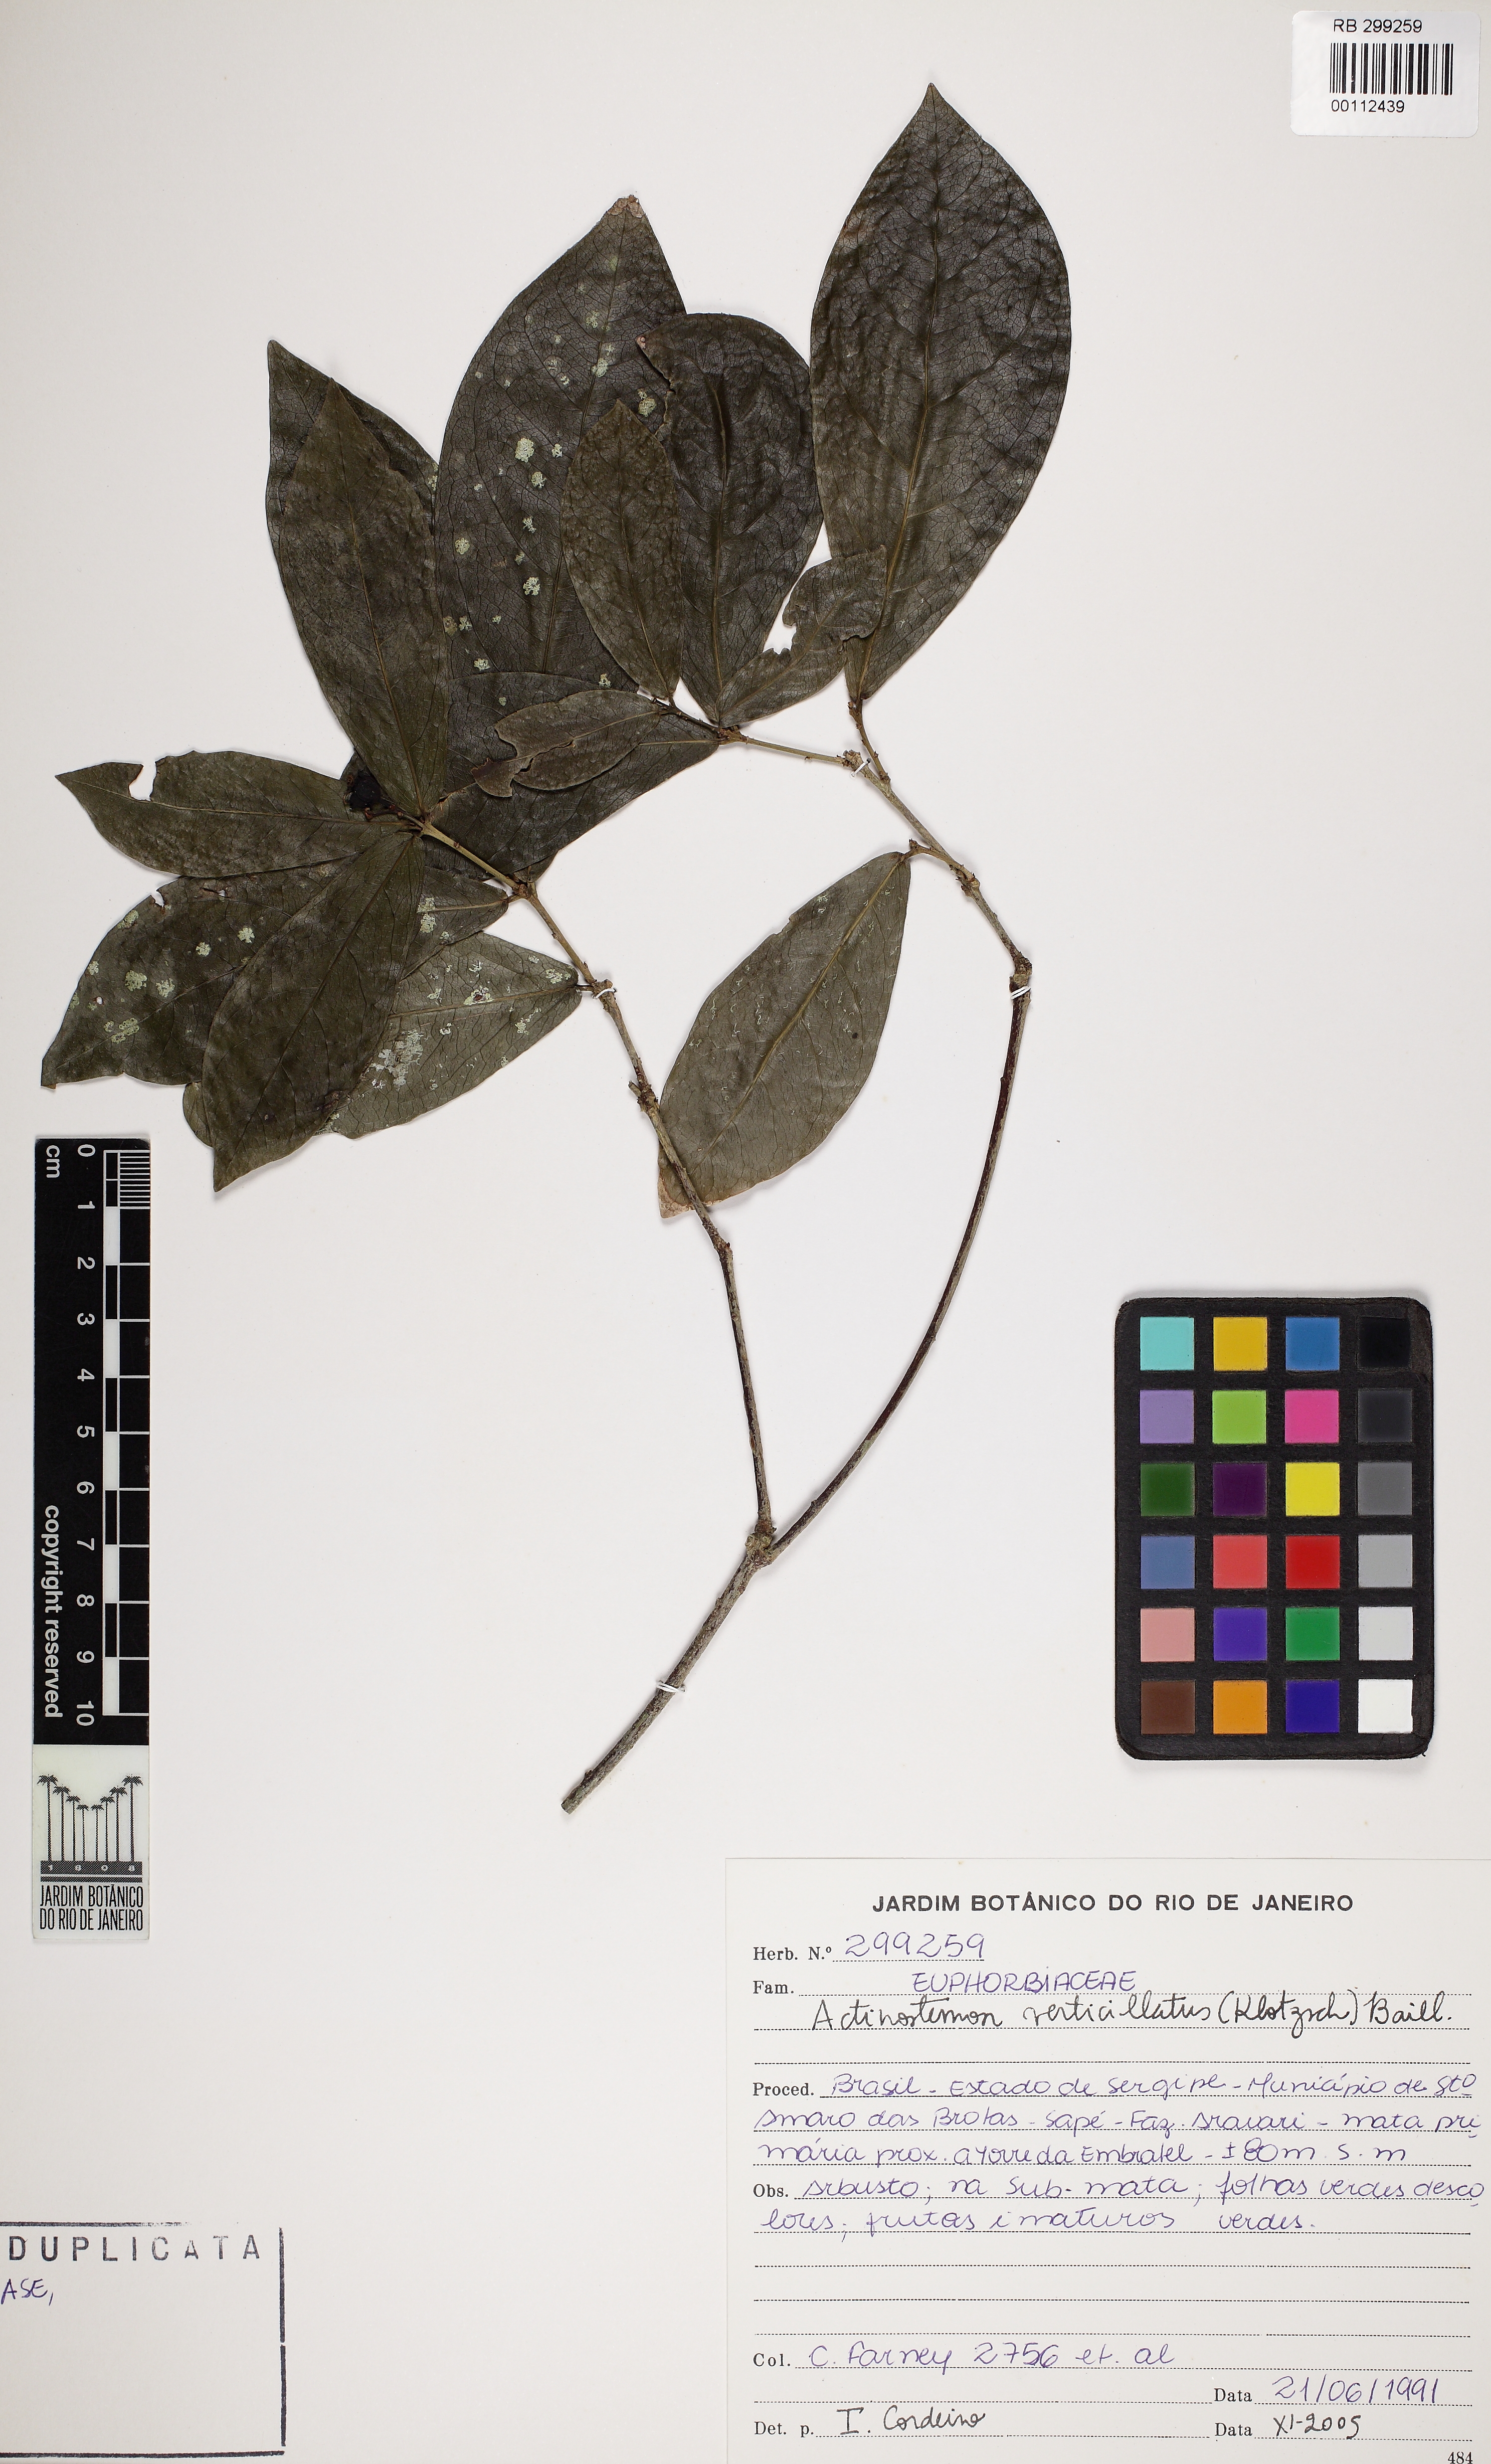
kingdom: Plantae
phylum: Tracheophyta
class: Magnoliopsida
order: Malpighiales
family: Euphorbiaceae
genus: Actinostemon
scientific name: Actinostemon verticillatus
